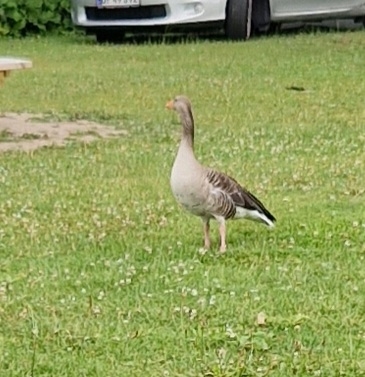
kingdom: Animalia
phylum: Chordata
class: Aves
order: Anseriformes
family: Anatidae
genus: Anser
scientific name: Anser anser
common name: Grågås
